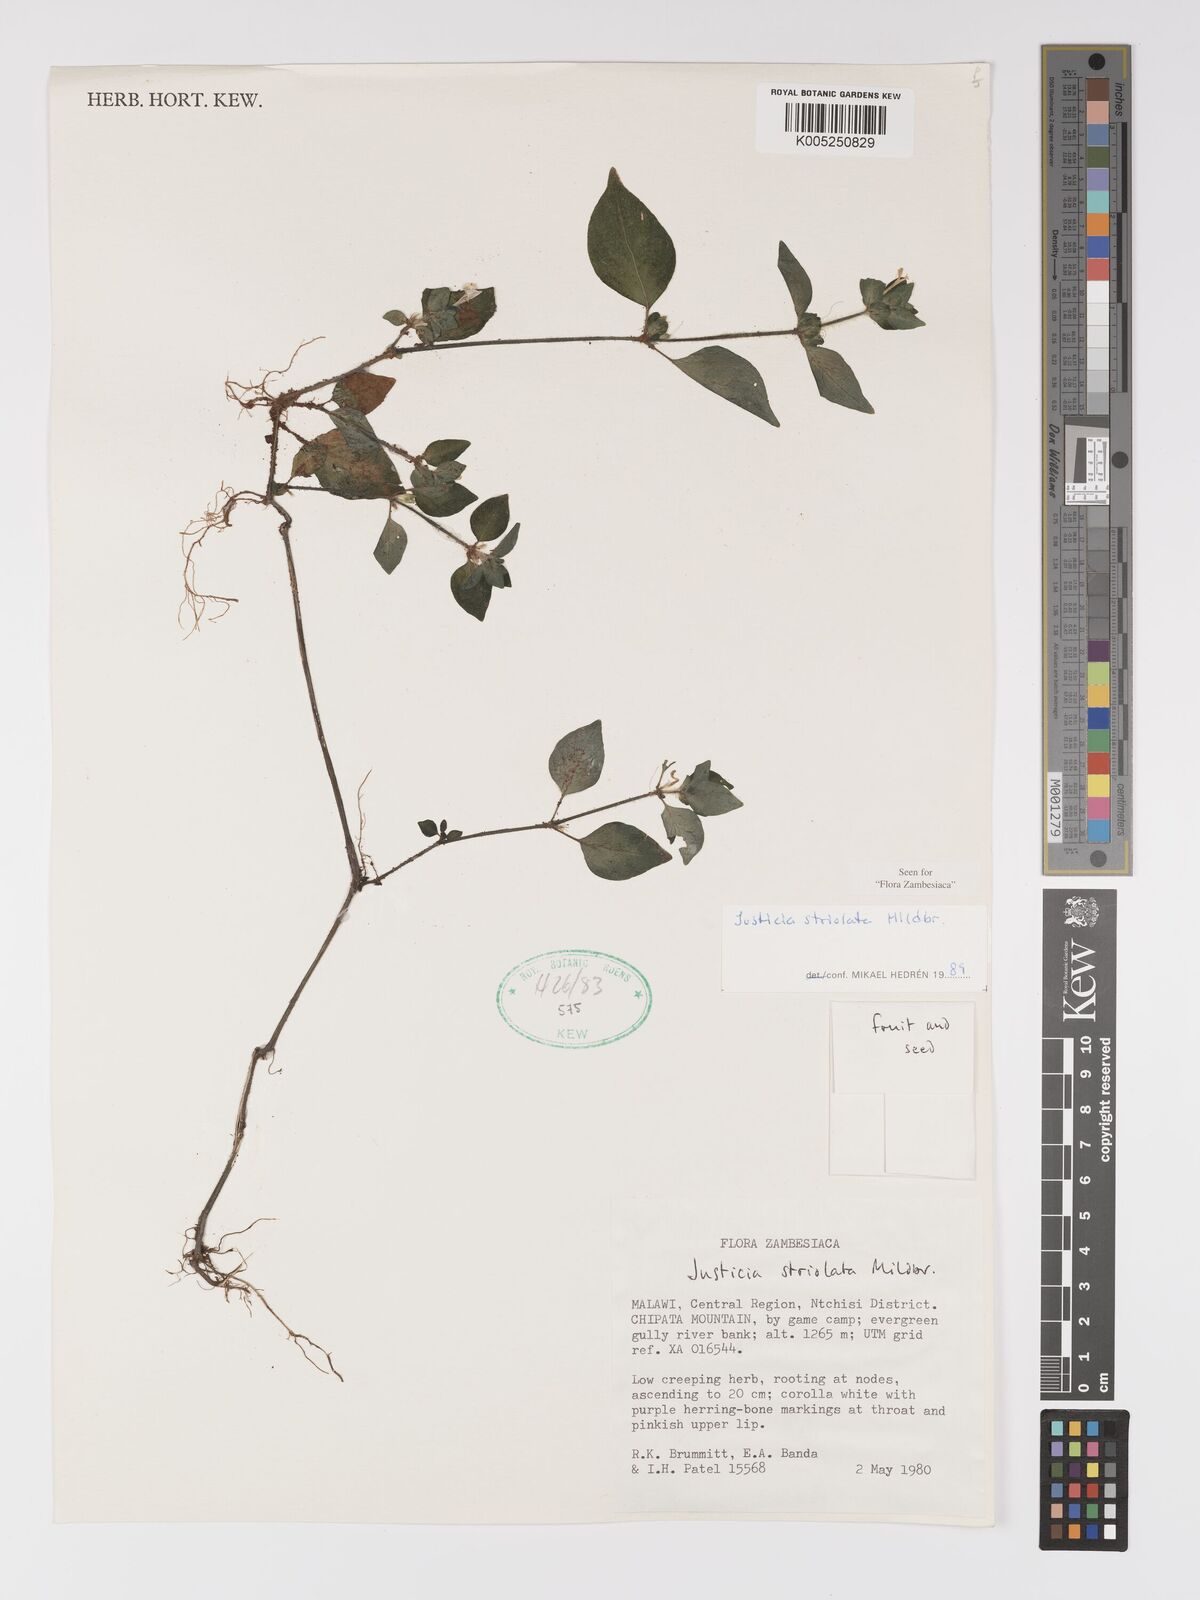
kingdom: Plantae
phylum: Tracheophyta
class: Magnoliopsida
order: Lamiales
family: Acanthaceae
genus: Justicia
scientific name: Justicia striolata
